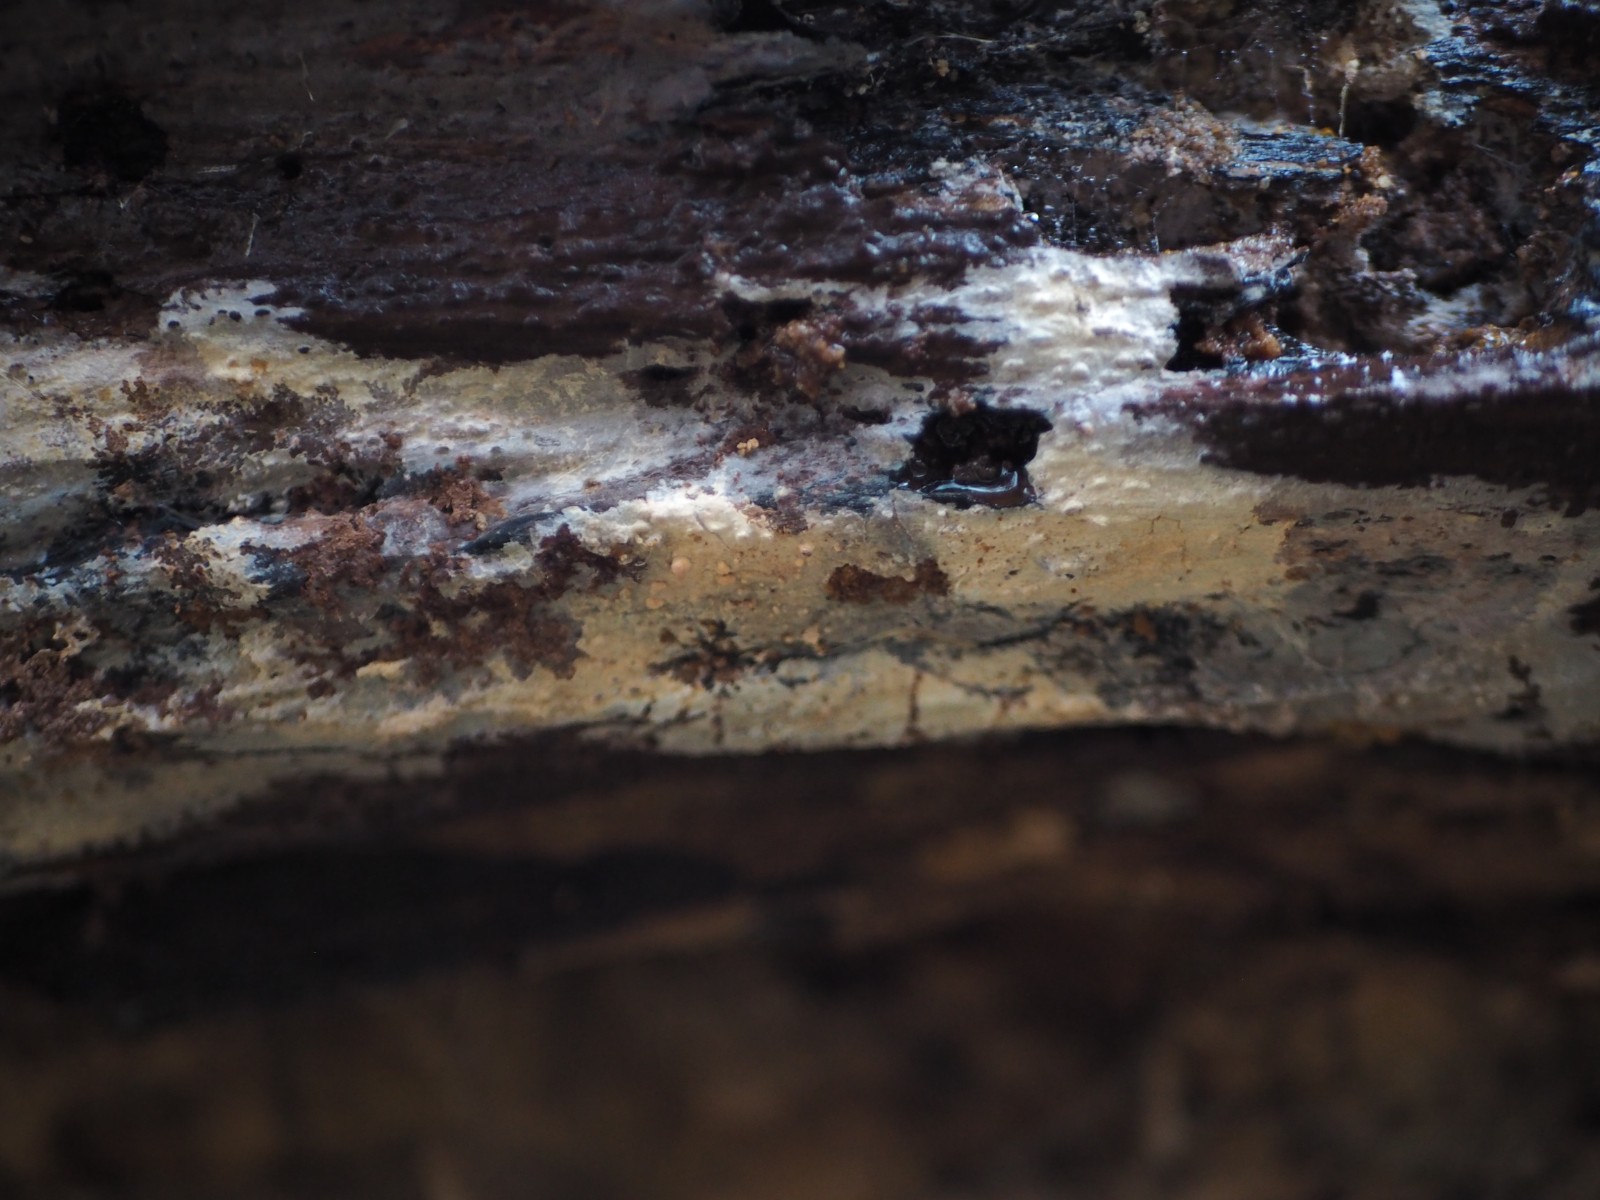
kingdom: Fungi
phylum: Basidiomycota
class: Agaricomycetes
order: Hymenochaetales
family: Rickenellaceae
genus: Peniophorella
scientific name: Peniophorella praetermissa
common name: almindelig kalkskind
